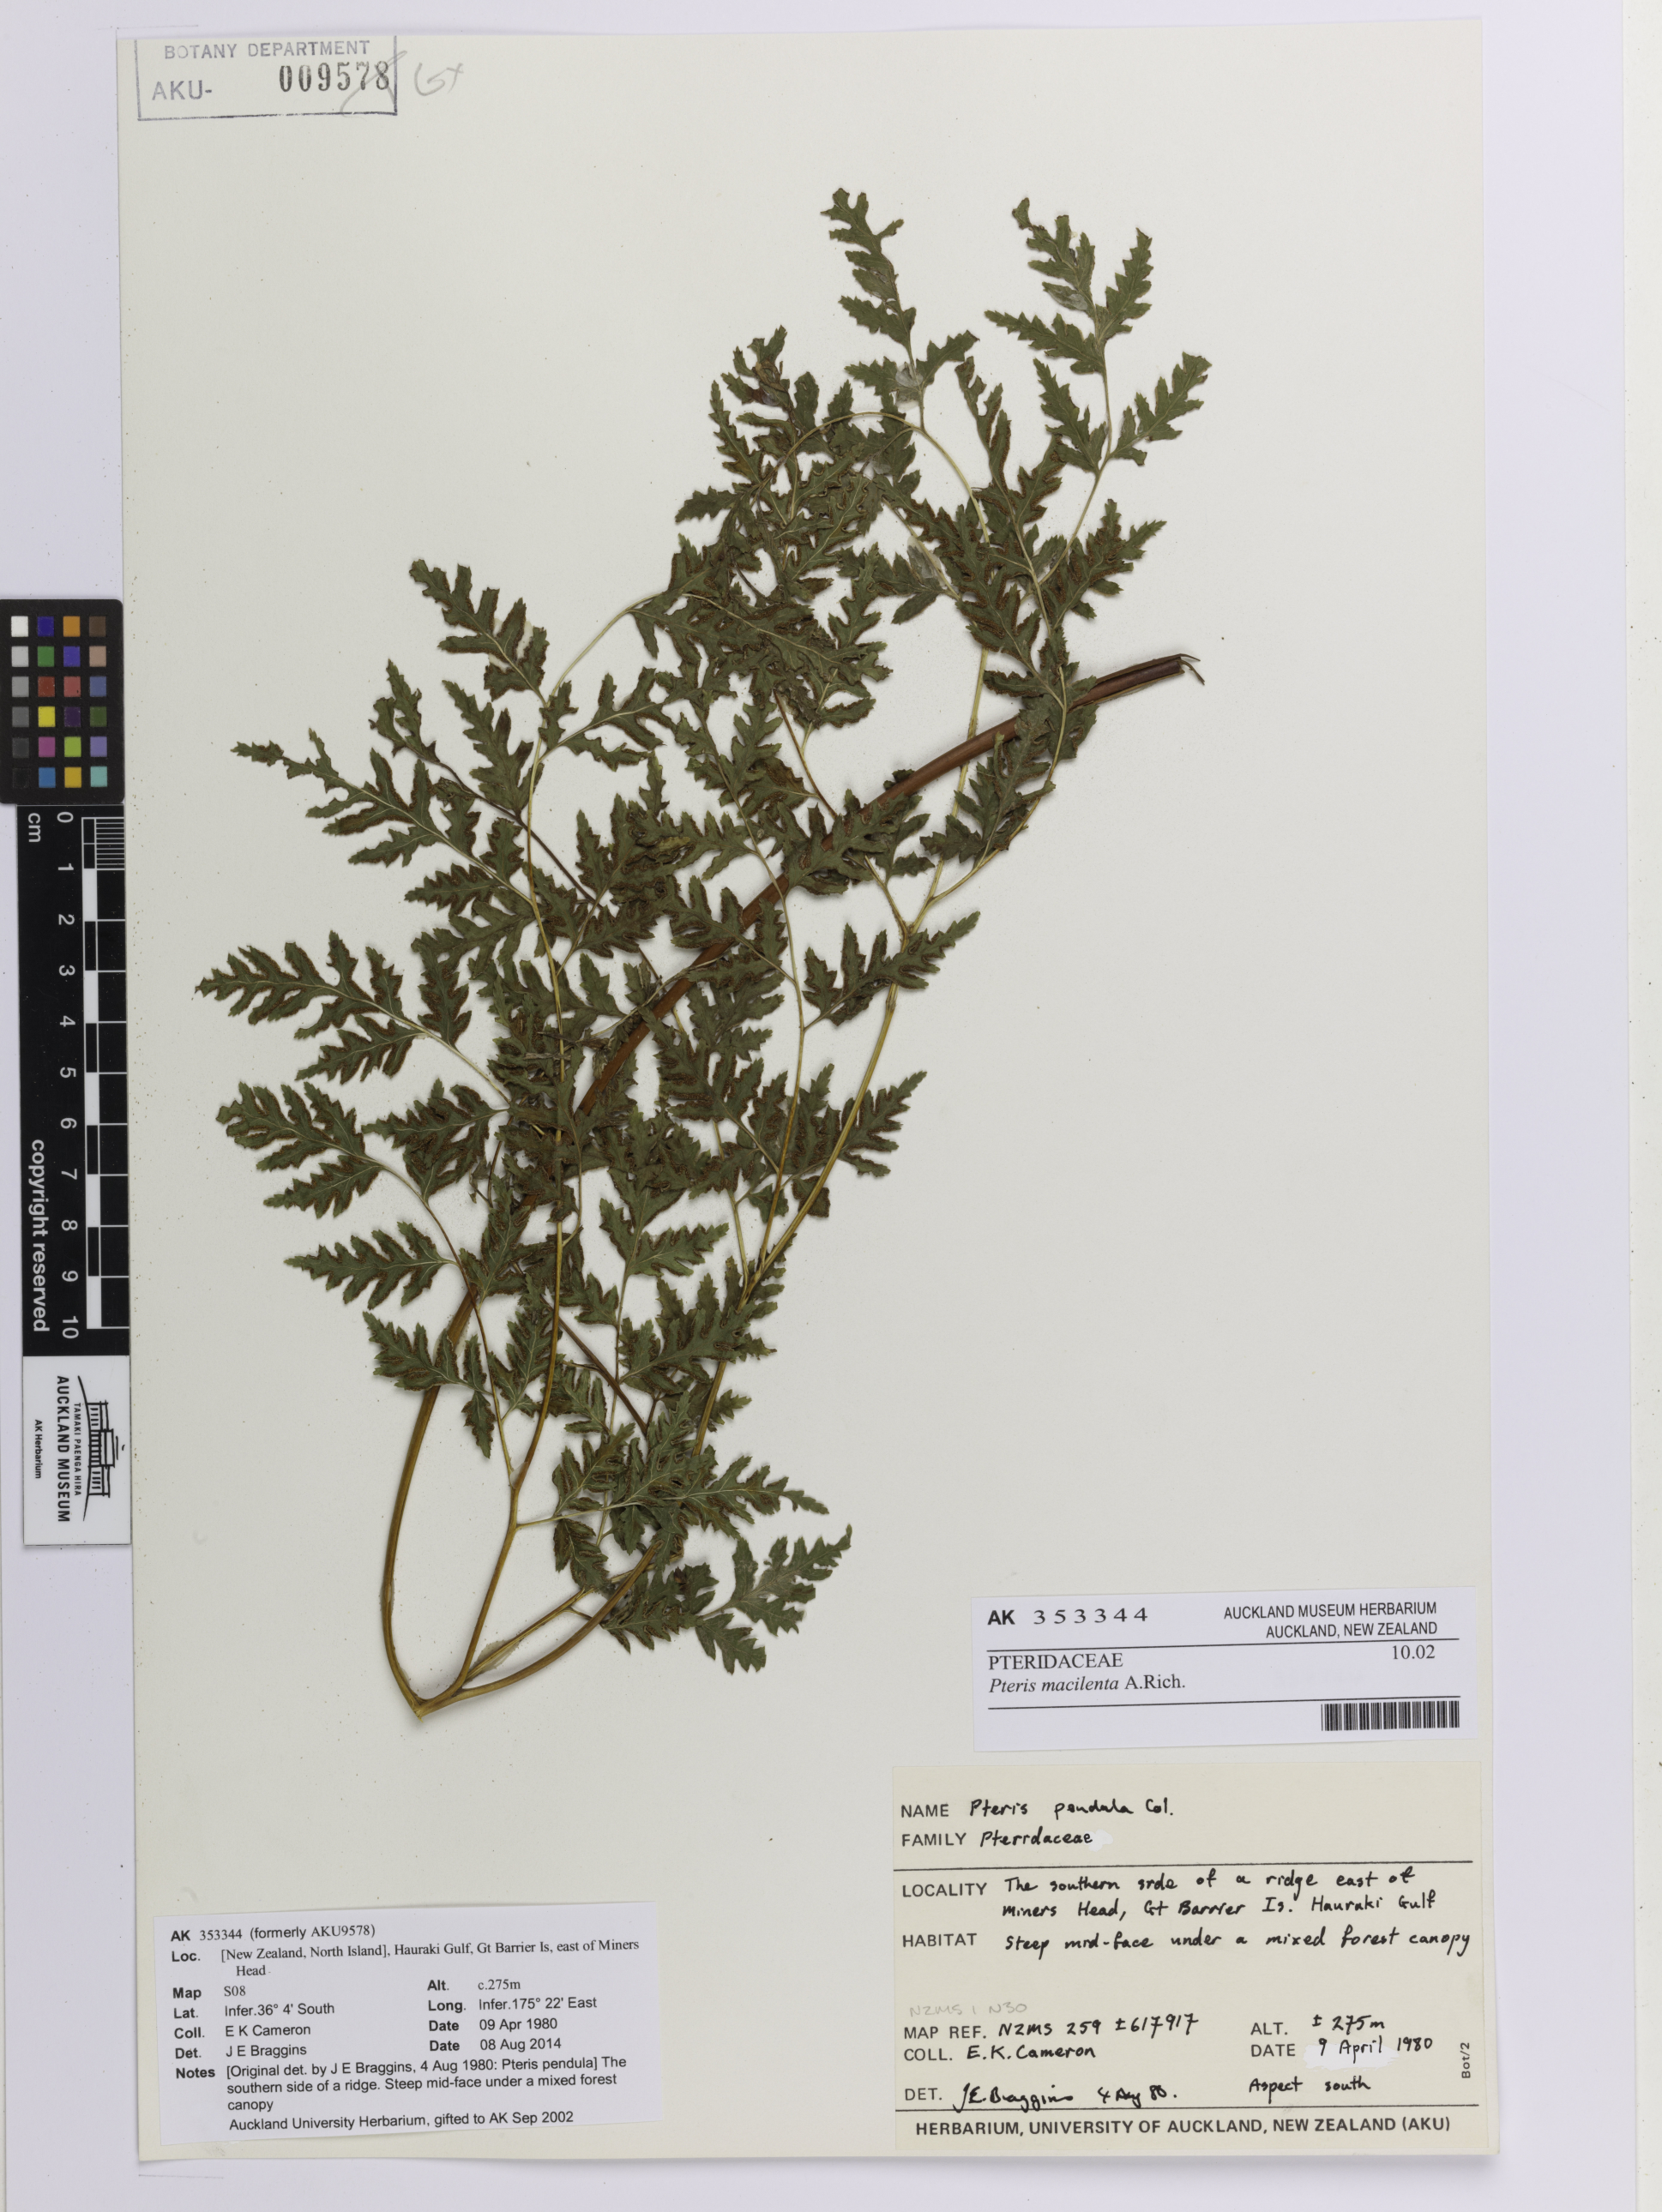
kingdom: Plantae
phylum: Tracheophyta
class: Polypodiopsida
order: Polypodiales
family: Pteridaceae
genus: Pteris
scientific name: Pteris macilenta
